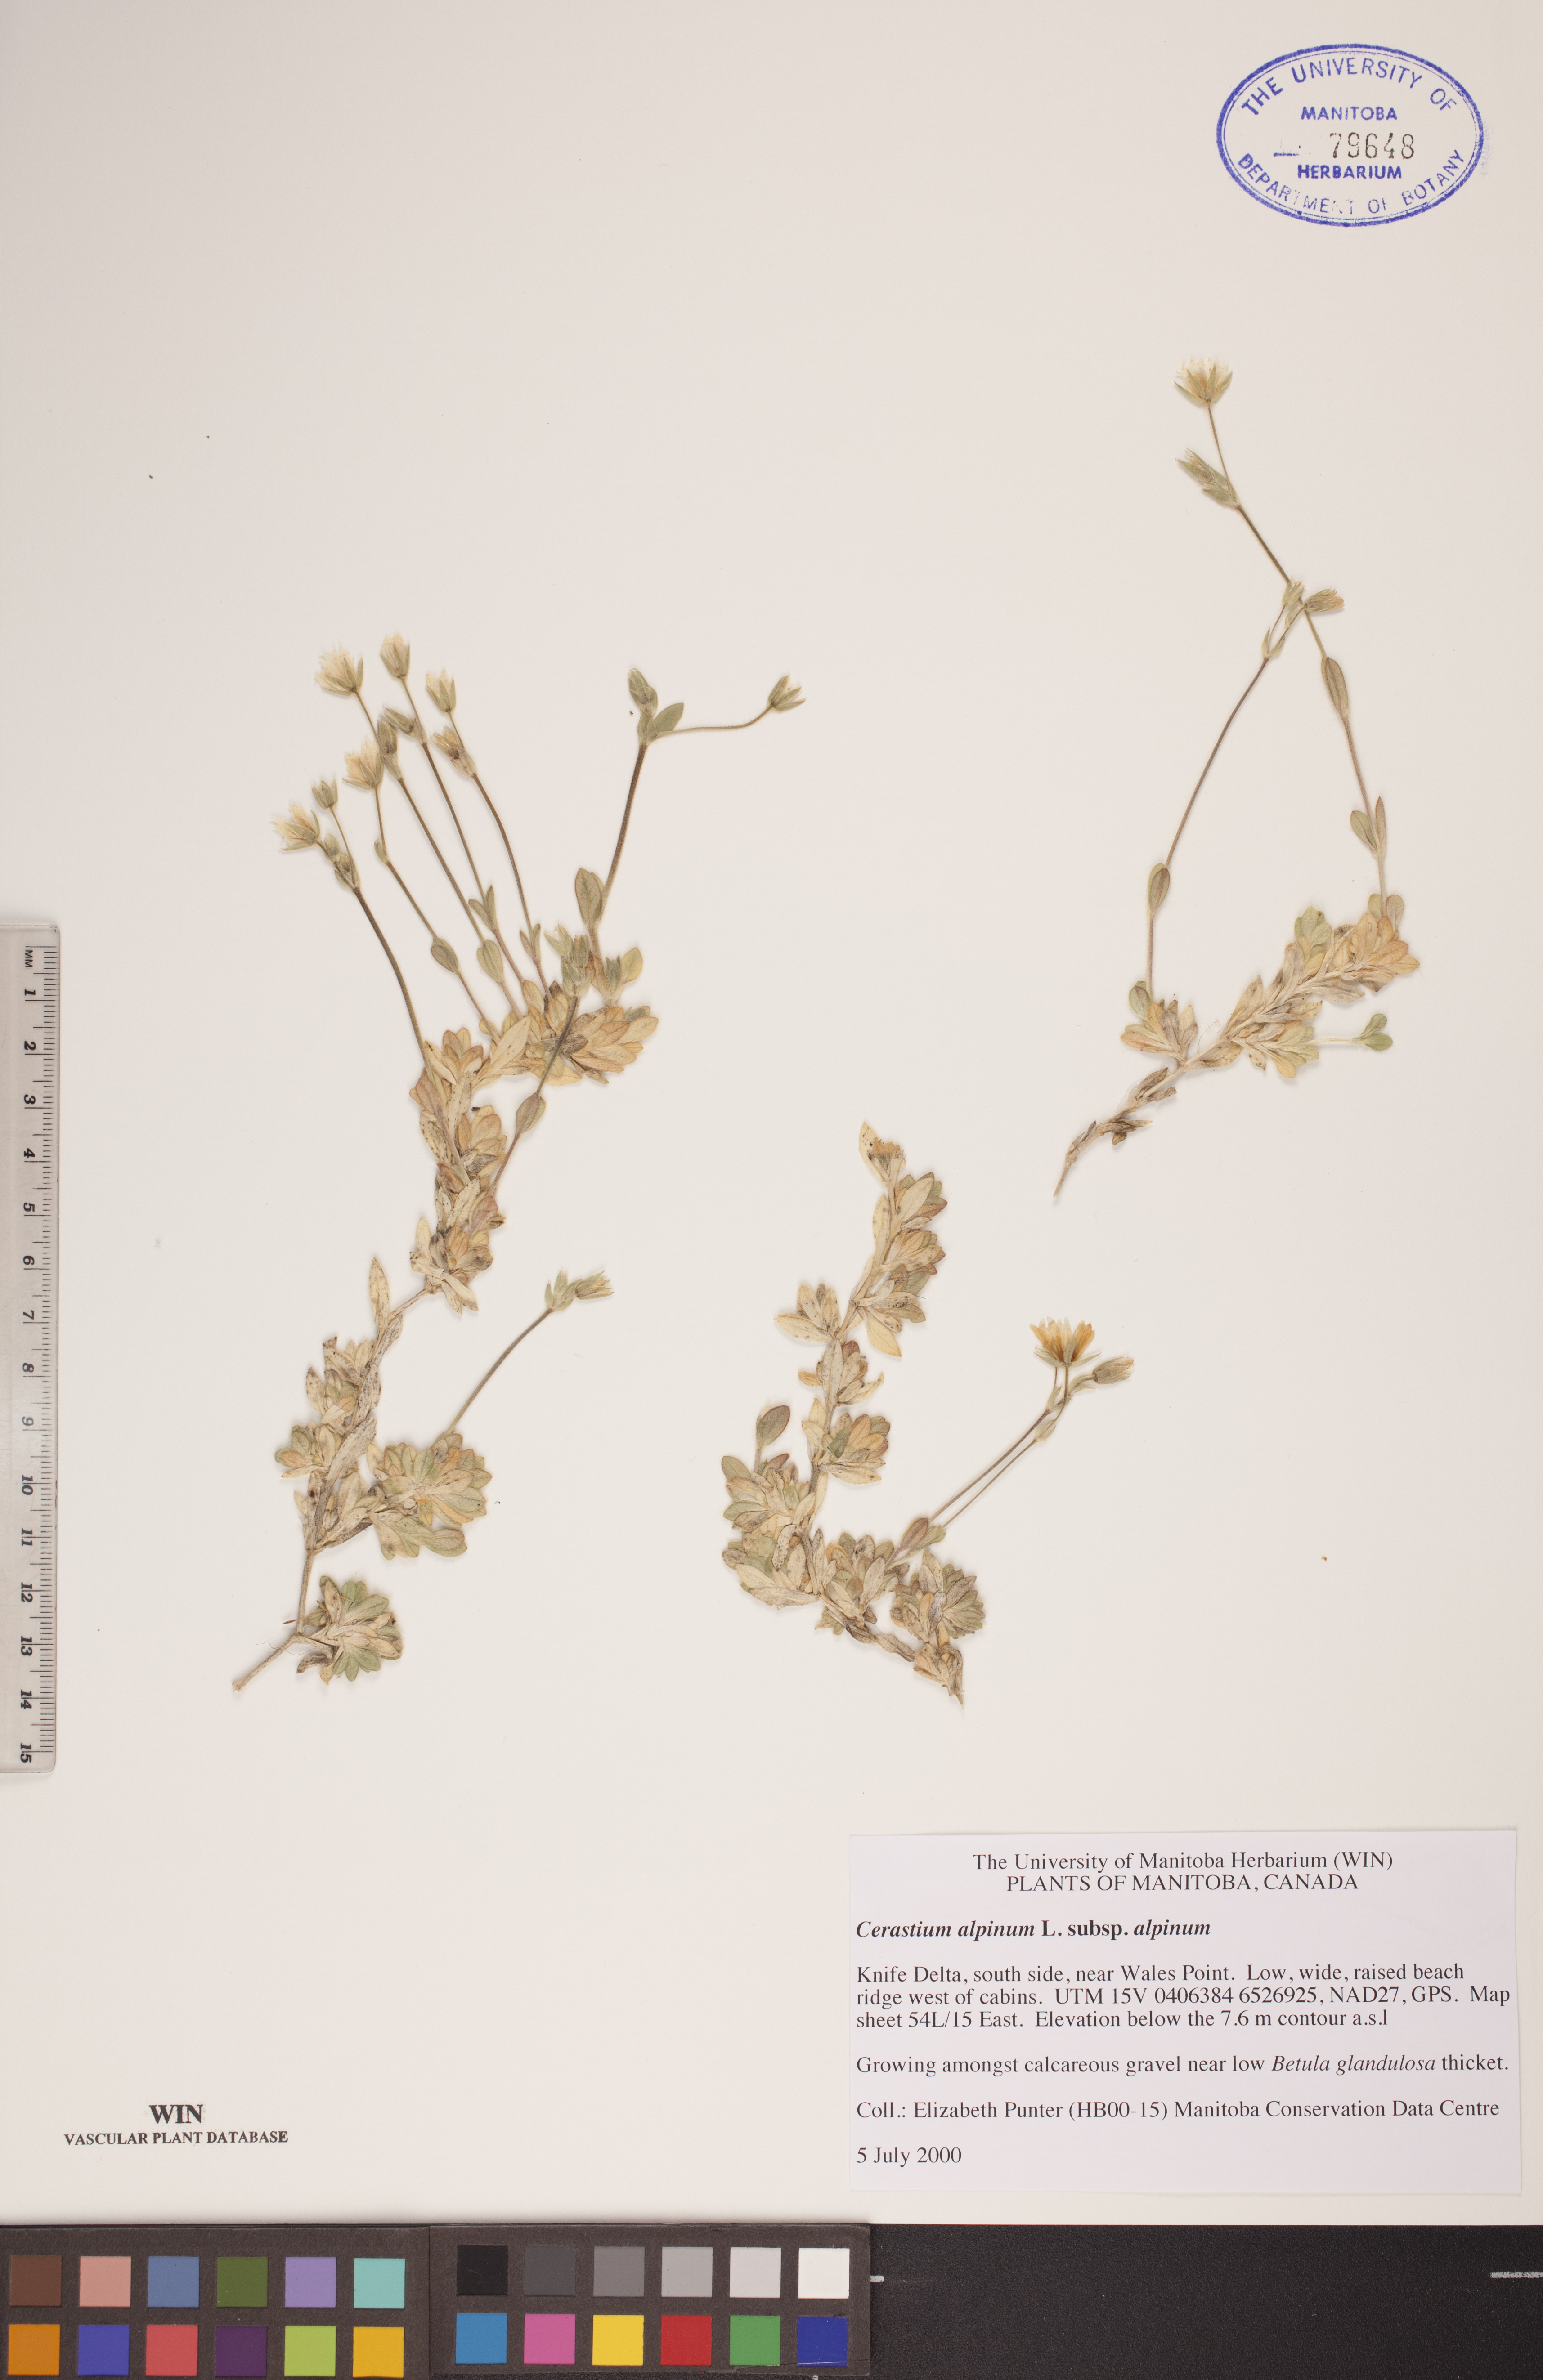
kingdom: Plantae
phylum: Tracheophyta
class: Magnoliopsida
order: Caryophyllales
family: Caryophyllaceae
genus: Cerastium
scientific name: Cerastium alpinum
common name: Alpine mouse-ear
